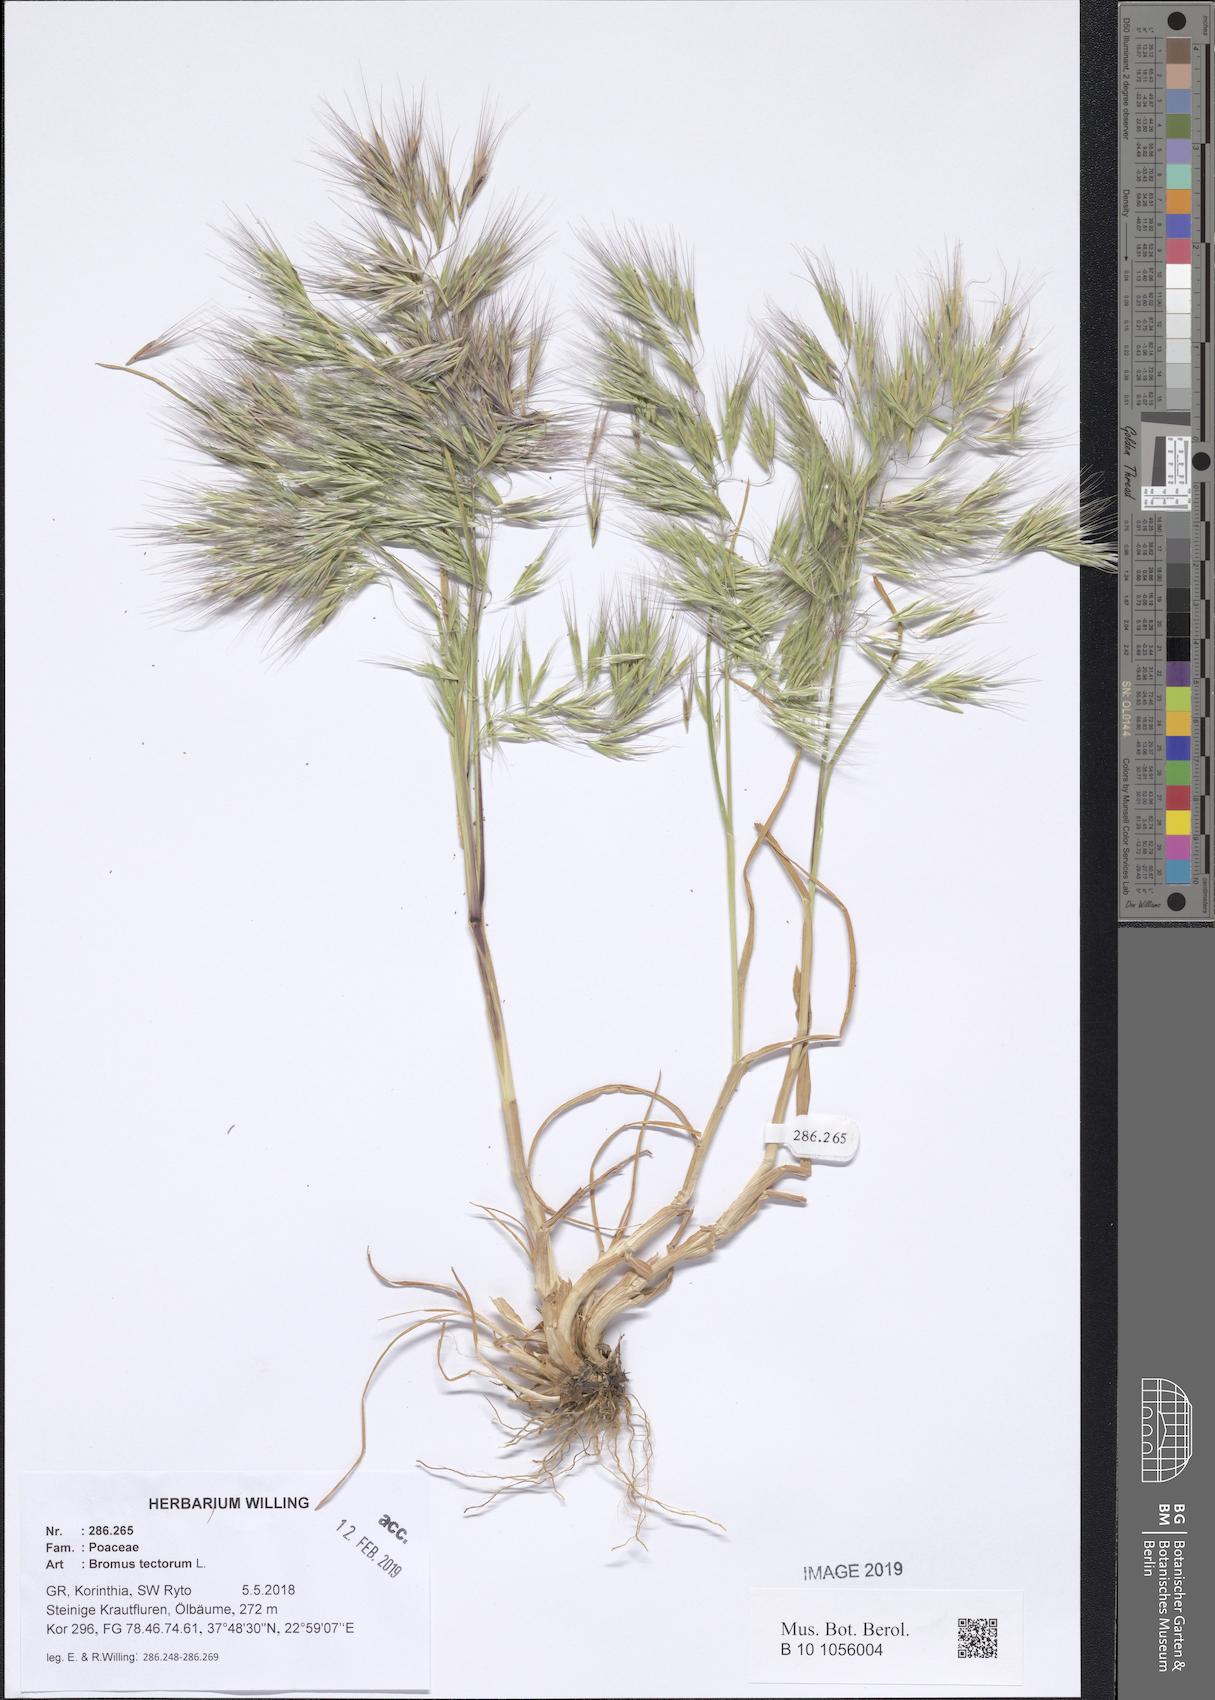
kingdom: Plantae
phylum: Tracheophyta
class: Liliopsida
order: Poales
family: Poaceae
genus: Bromus
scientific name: Bromus tectorum
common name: Cheatgrass
